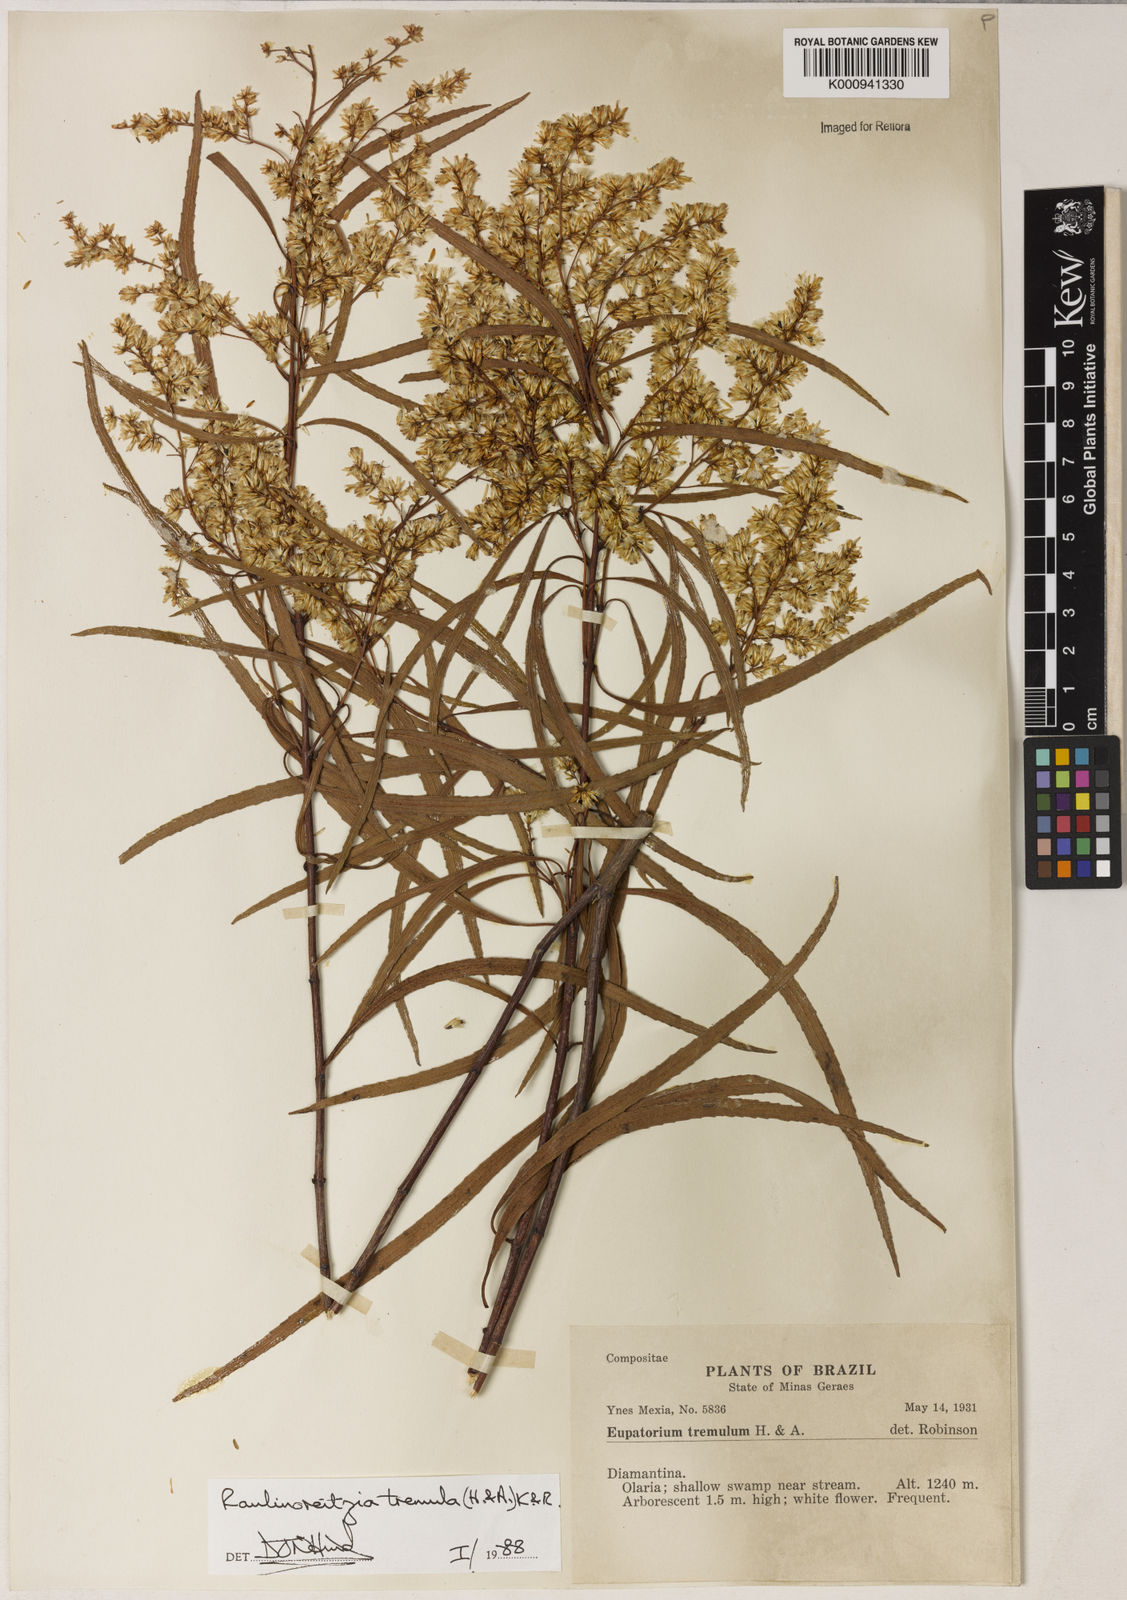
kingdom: Plantae
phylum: Tracheophyta
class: Magnoliopsida
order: Asterales
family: Asteraceae
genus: Raulinoreitzia
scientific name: Raulinoreitzia tremula
